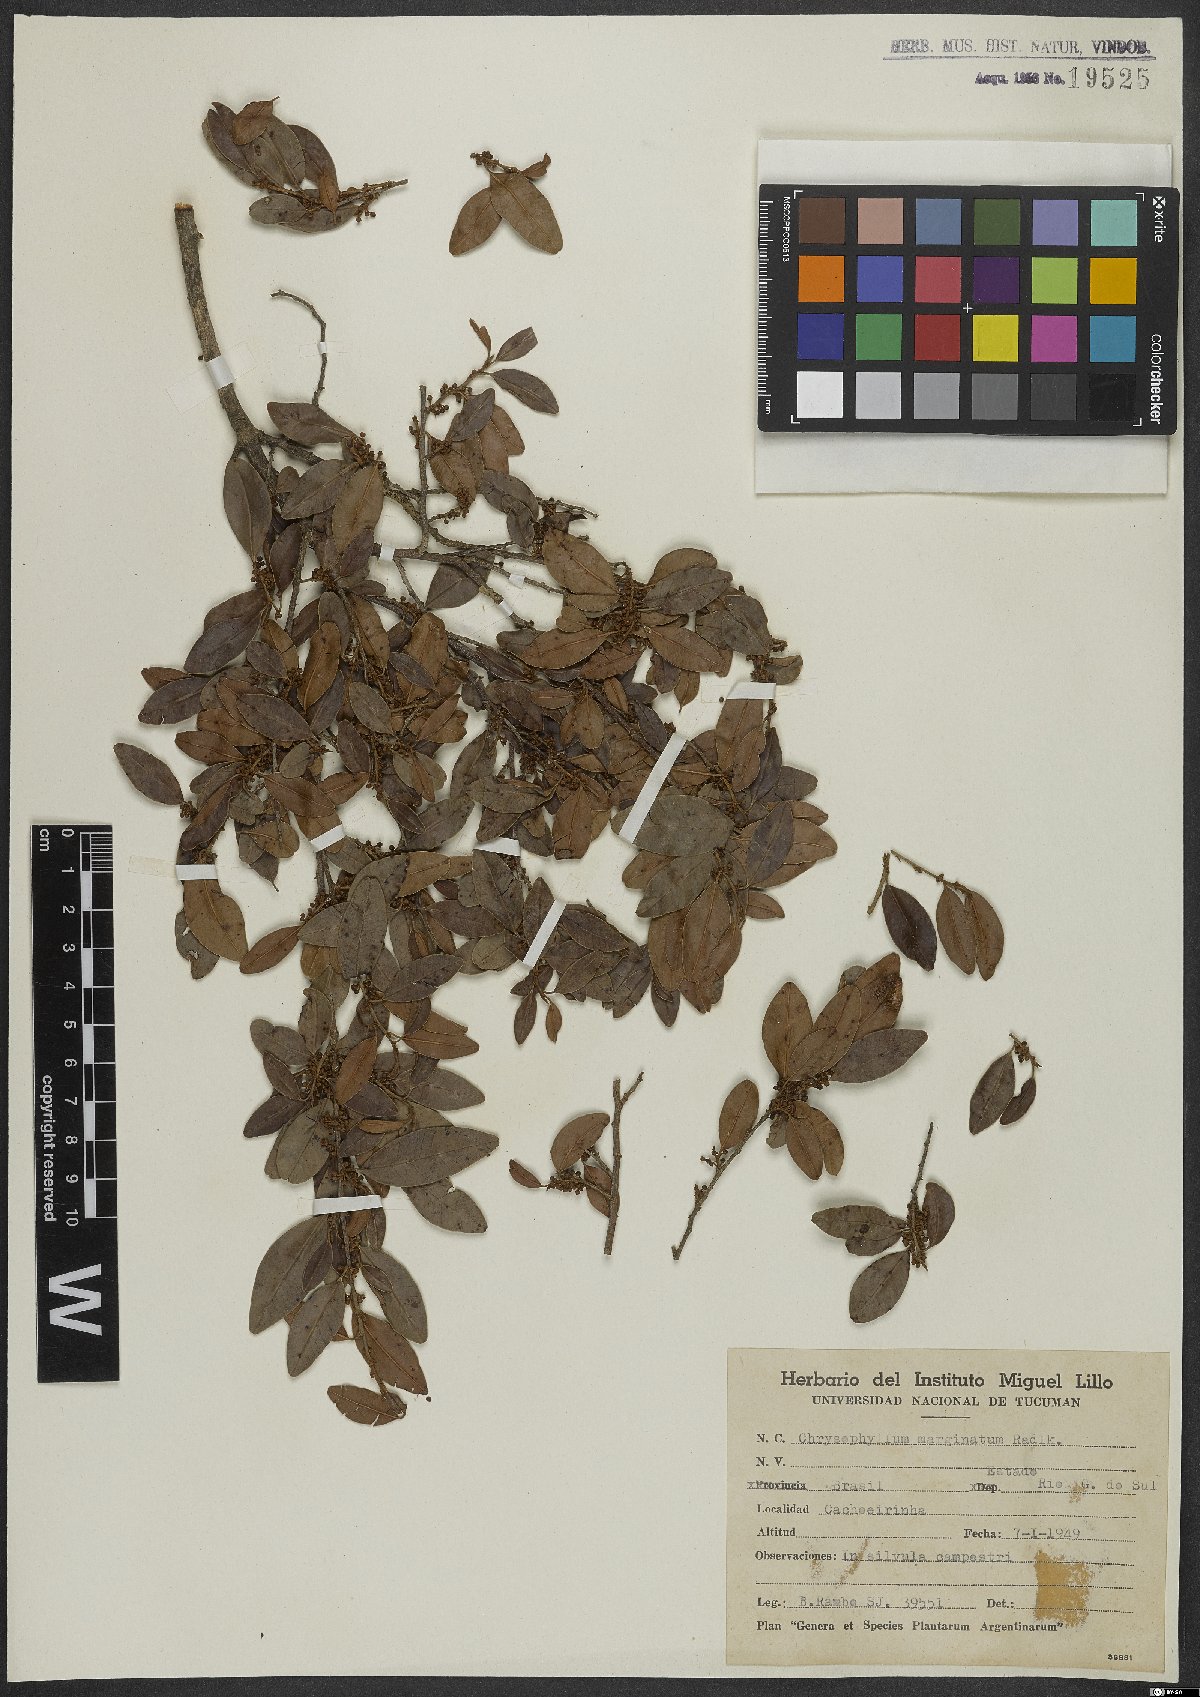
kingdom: Plantae
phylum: Tracheophyta
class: Magnoliopsida
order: Ericales
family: Sapotaceae
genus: Chrysophyllum
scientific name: Chrysophyllum marginatum
